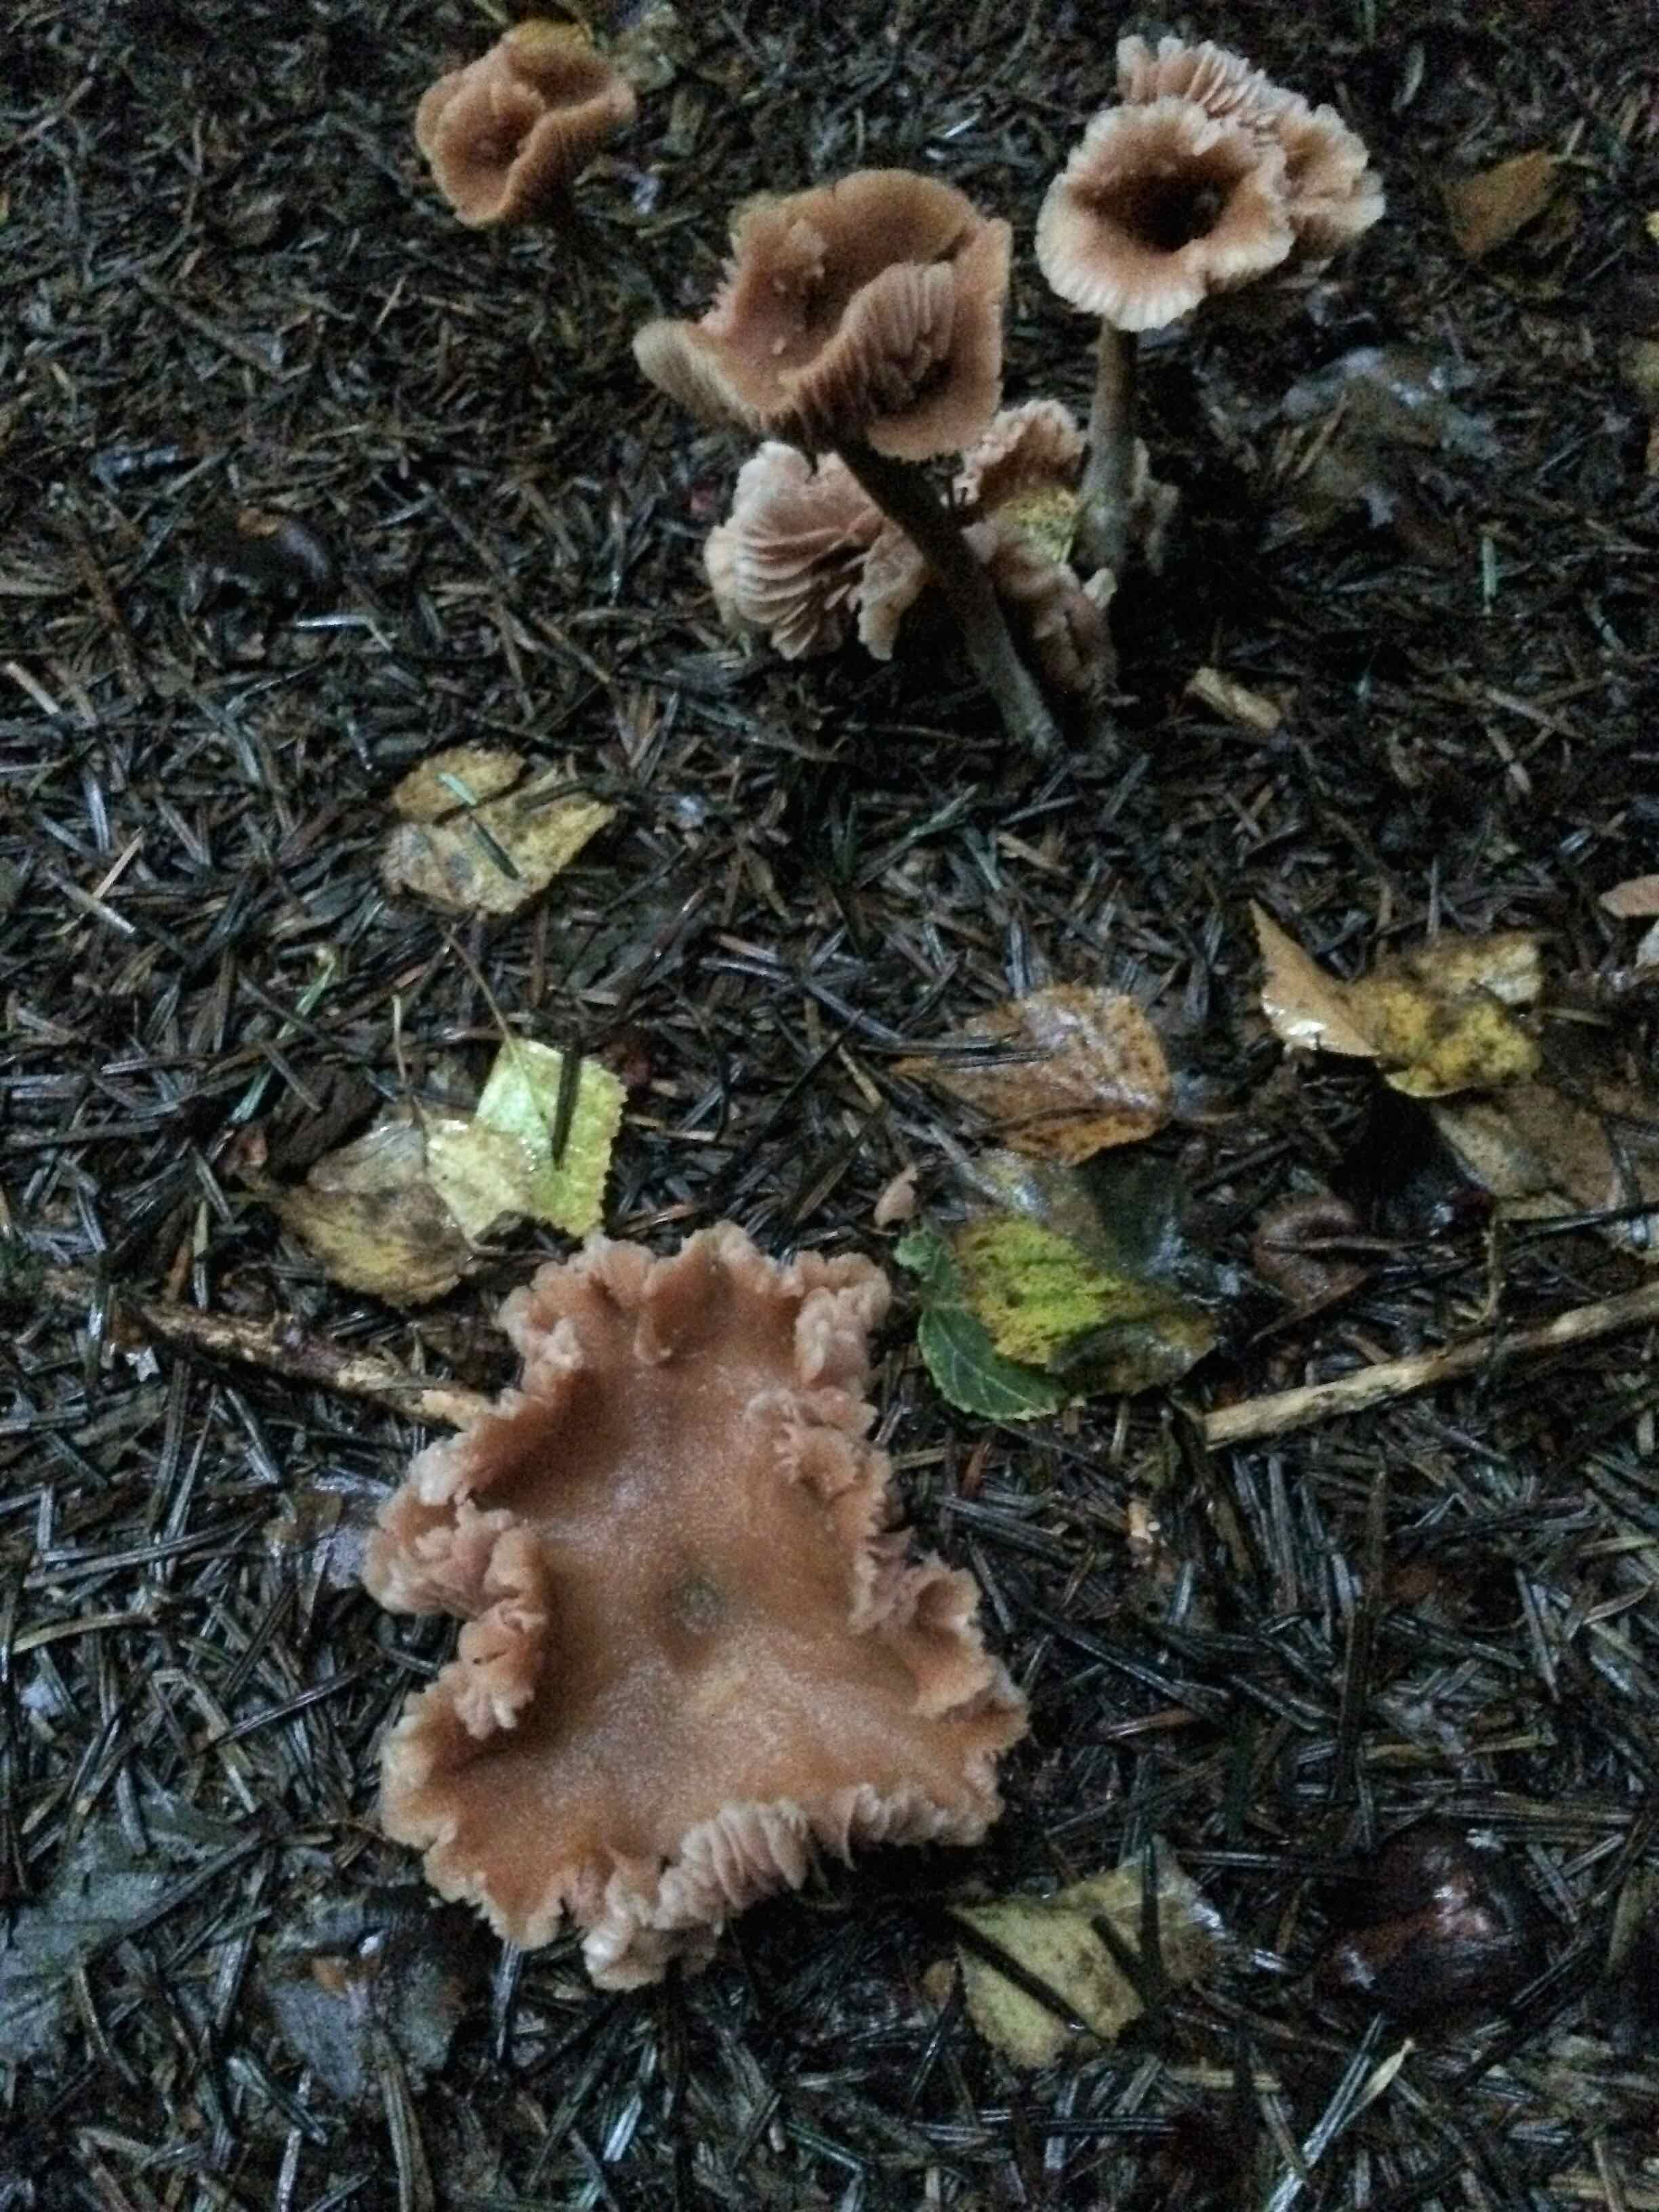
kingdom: Fungi
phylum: Basidiomycota
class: Agaricomycetes
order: Agaricales
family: Hydnangiaceae
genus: Laccaria
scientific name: Laccaria
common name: ametysthat
